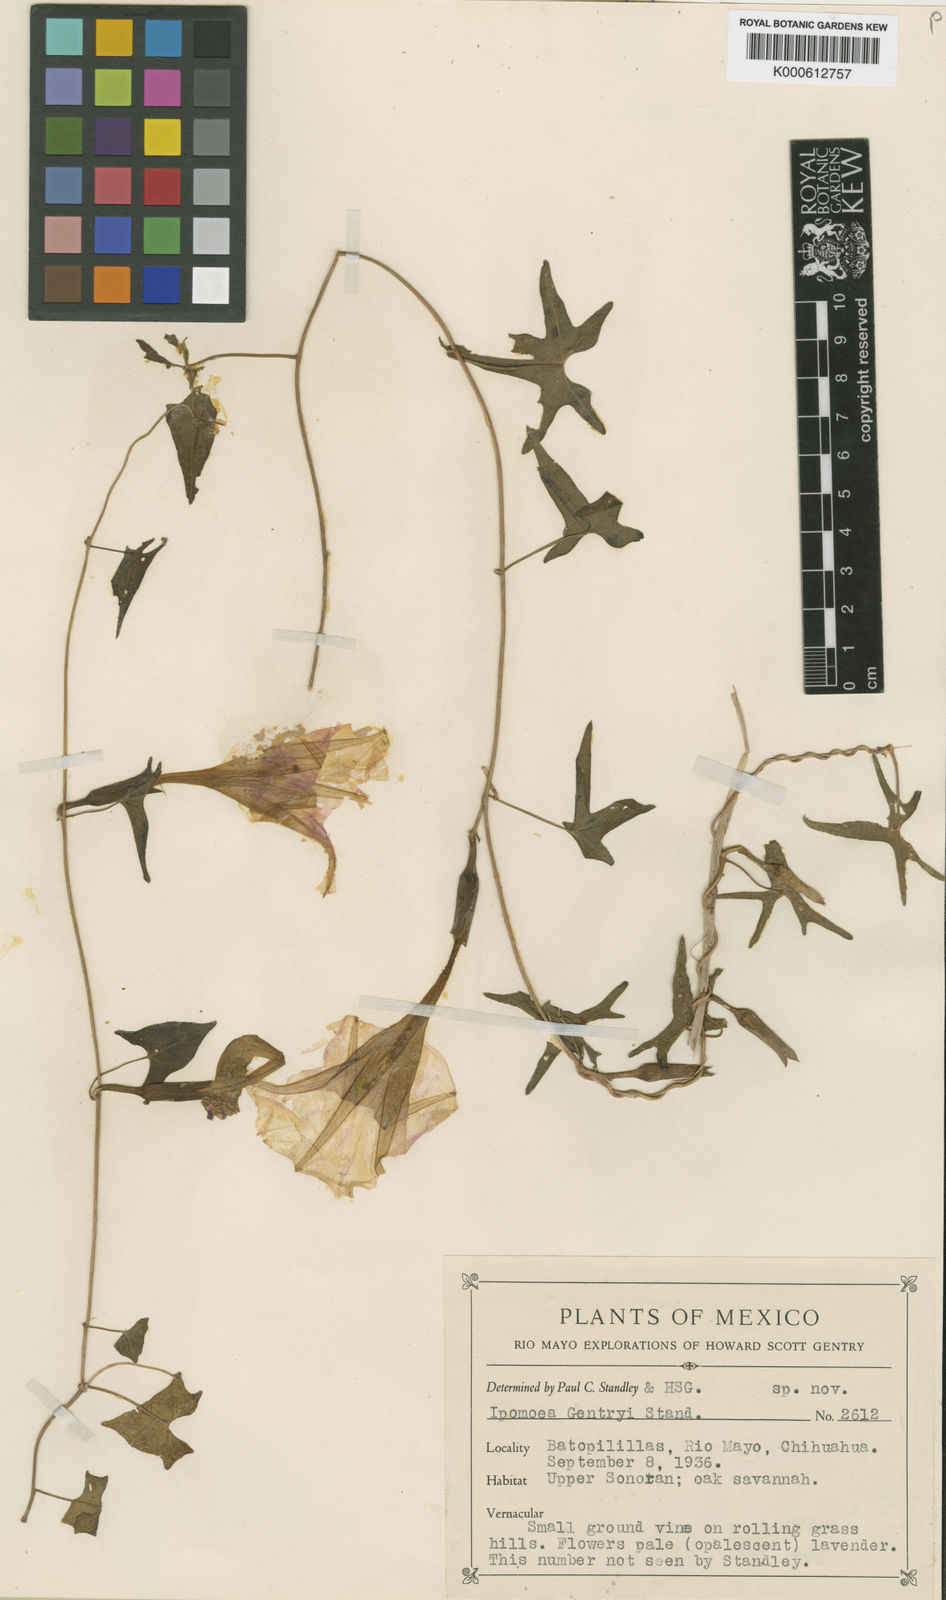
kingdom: Plantae
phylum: Tracheophyta
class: Magnoliopsida
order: Solanales
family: Convolvulaceae
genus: Ipomoea
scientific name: Ipomoea thurberi
